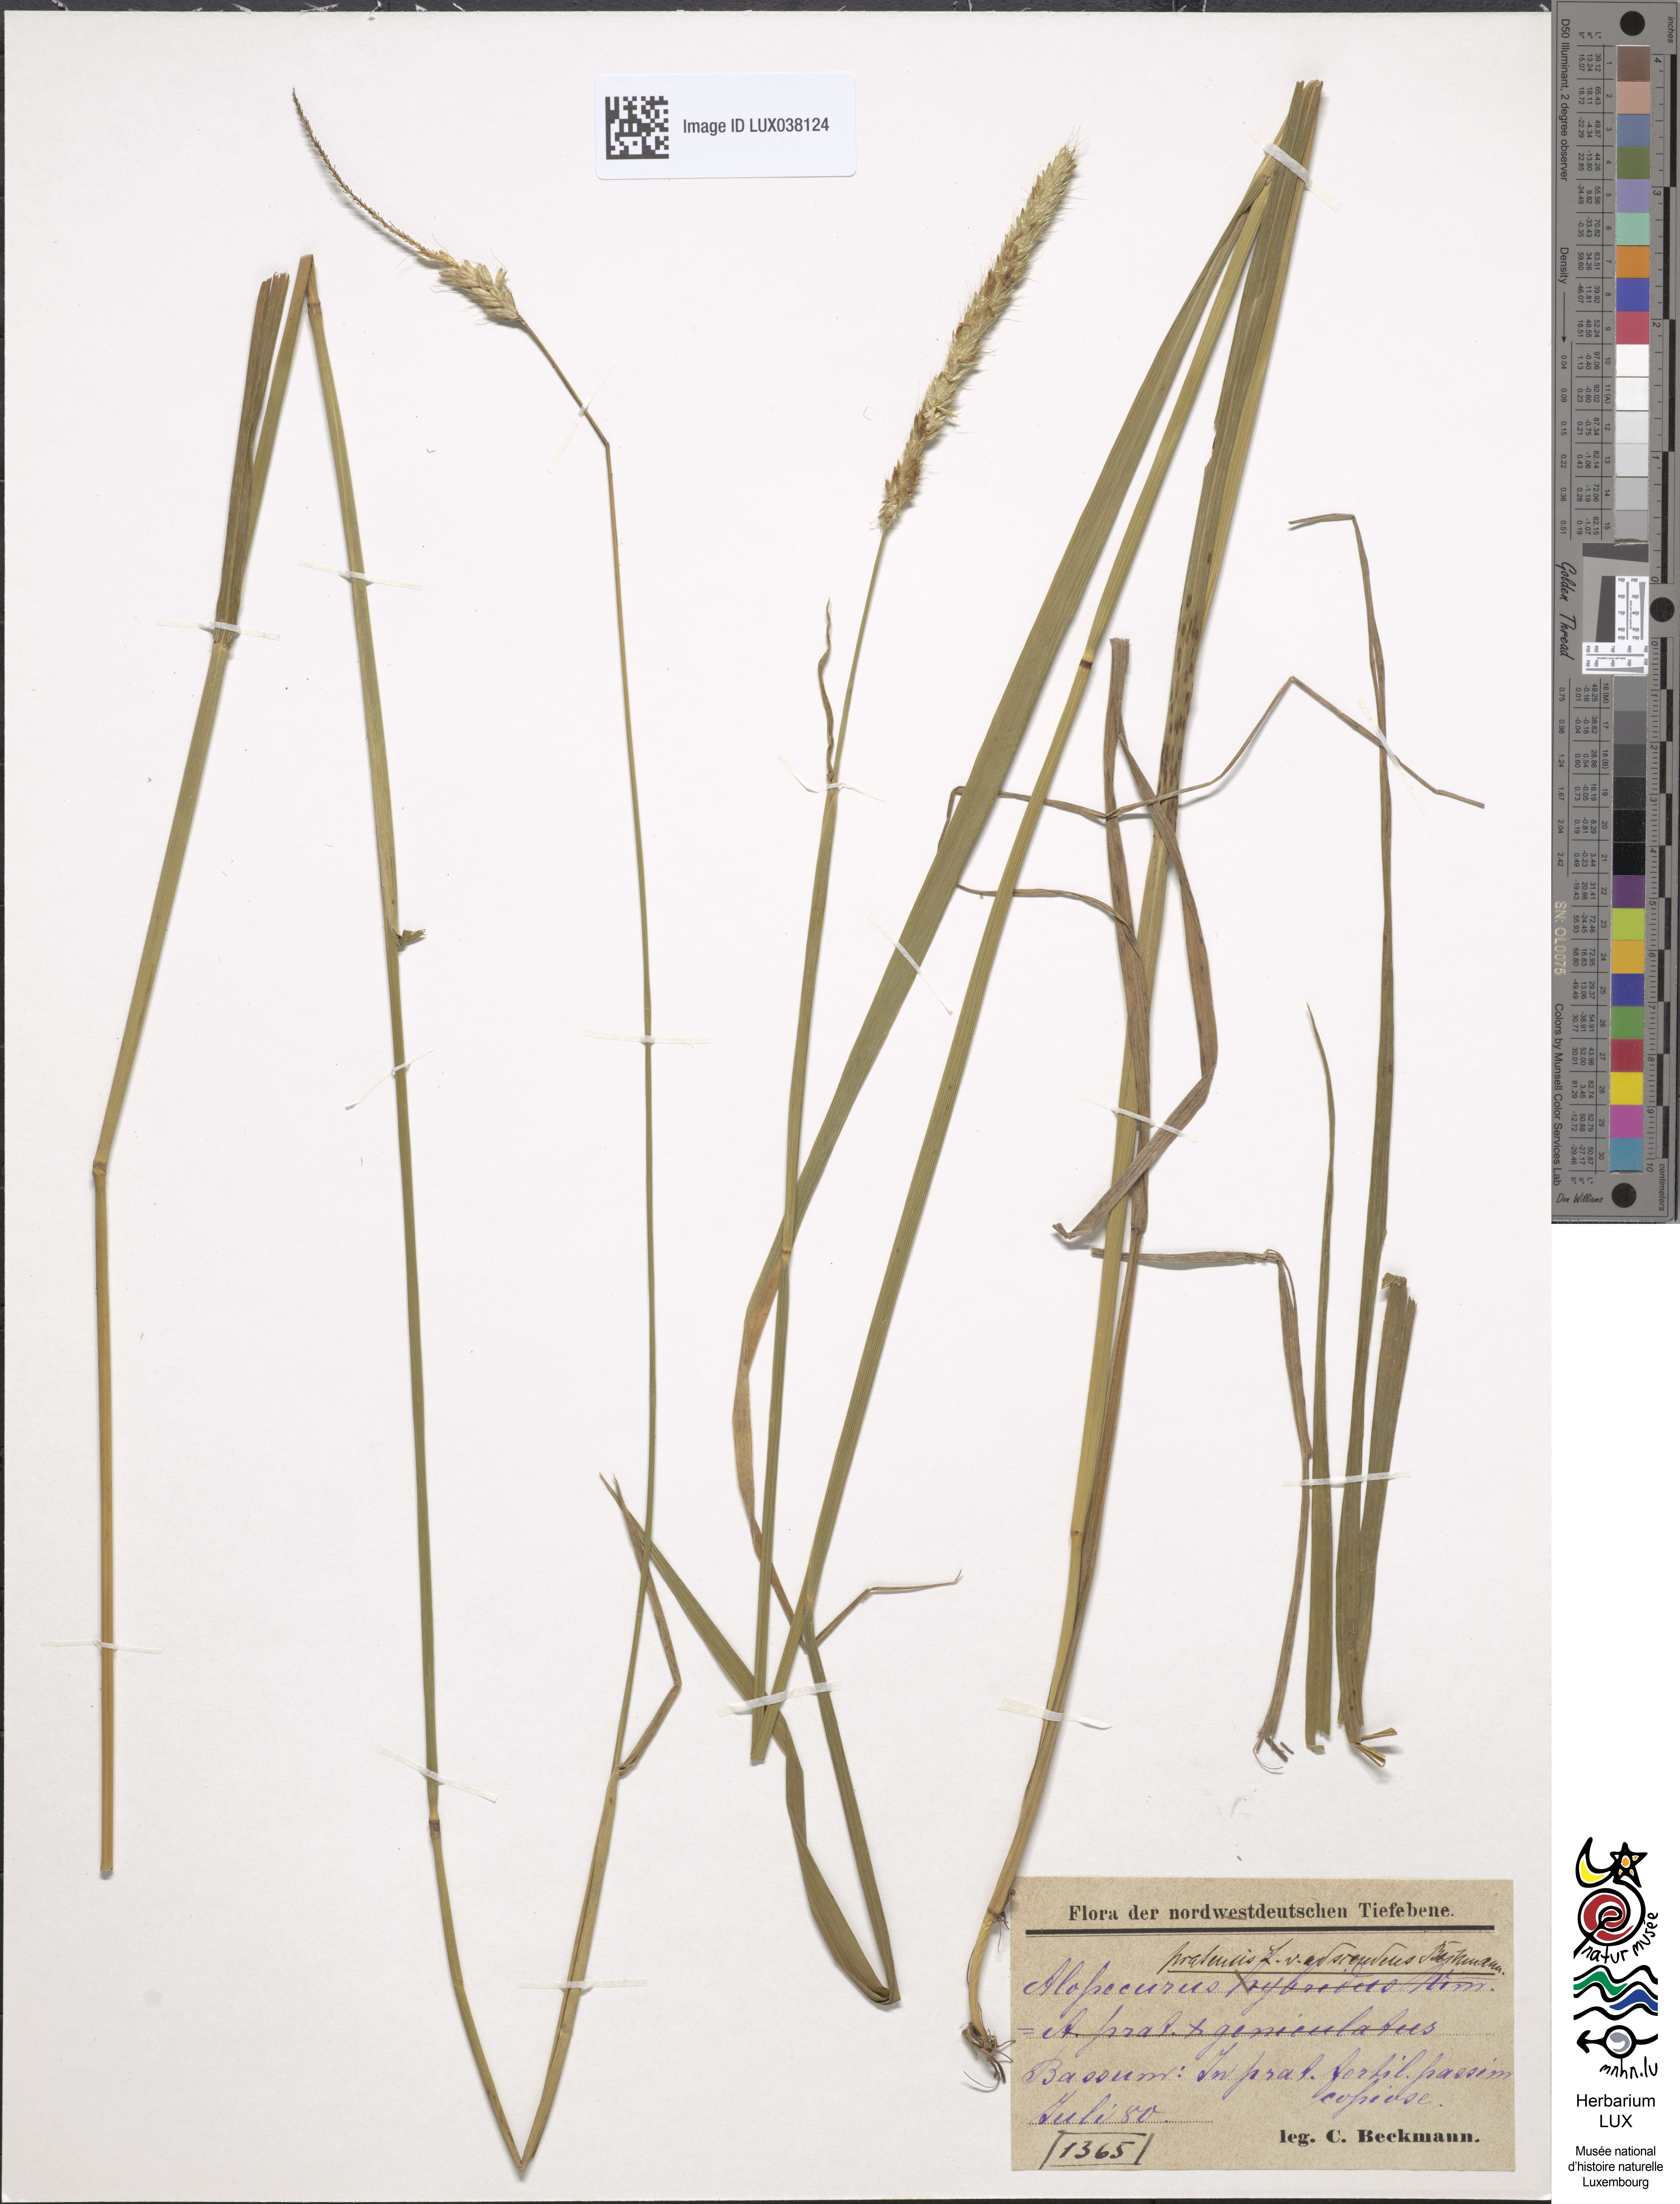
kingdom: Plantae
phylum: Tracheophyta
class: Liliopsida
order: Poales
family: Poaceae
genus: Alopecurus
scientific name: Alopecurus pratensis
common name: Meadow foxtail
